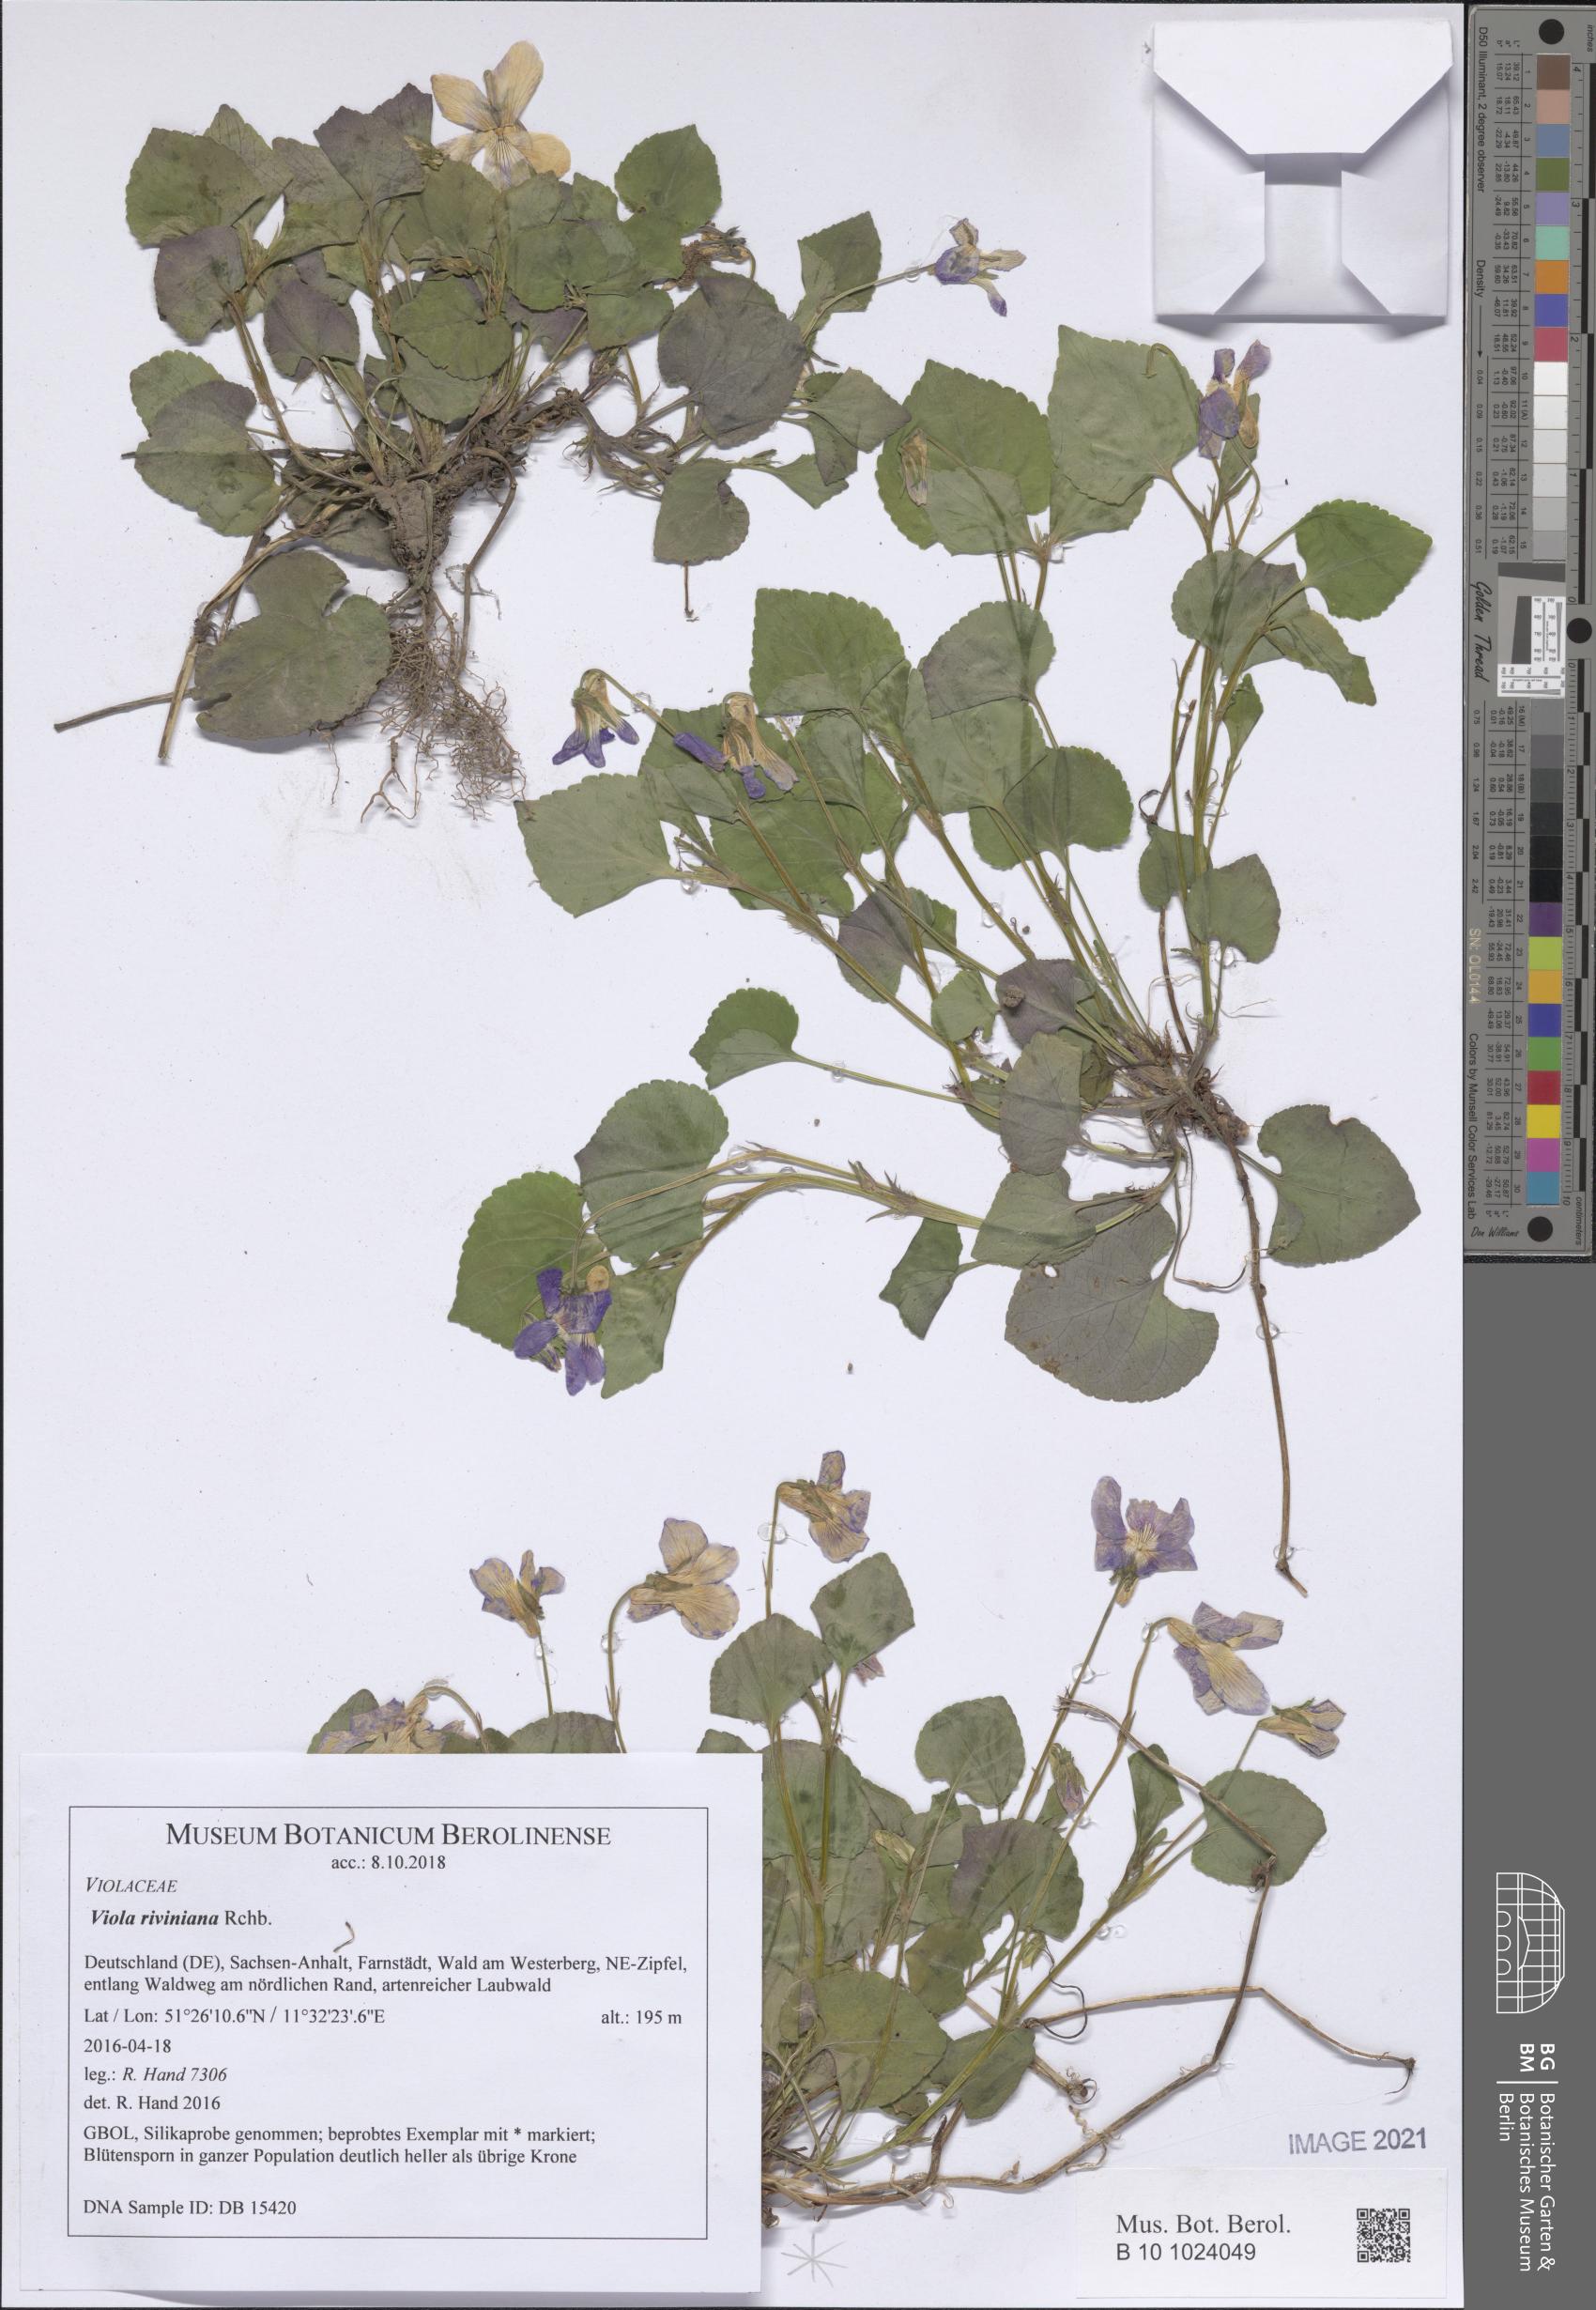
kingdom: Plantae
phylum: Tracheophyta
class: Magnoliopsida
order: Malpighiales
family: Violaceae
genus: Viola
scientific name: Viola riviniana
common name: Common dog-violet
